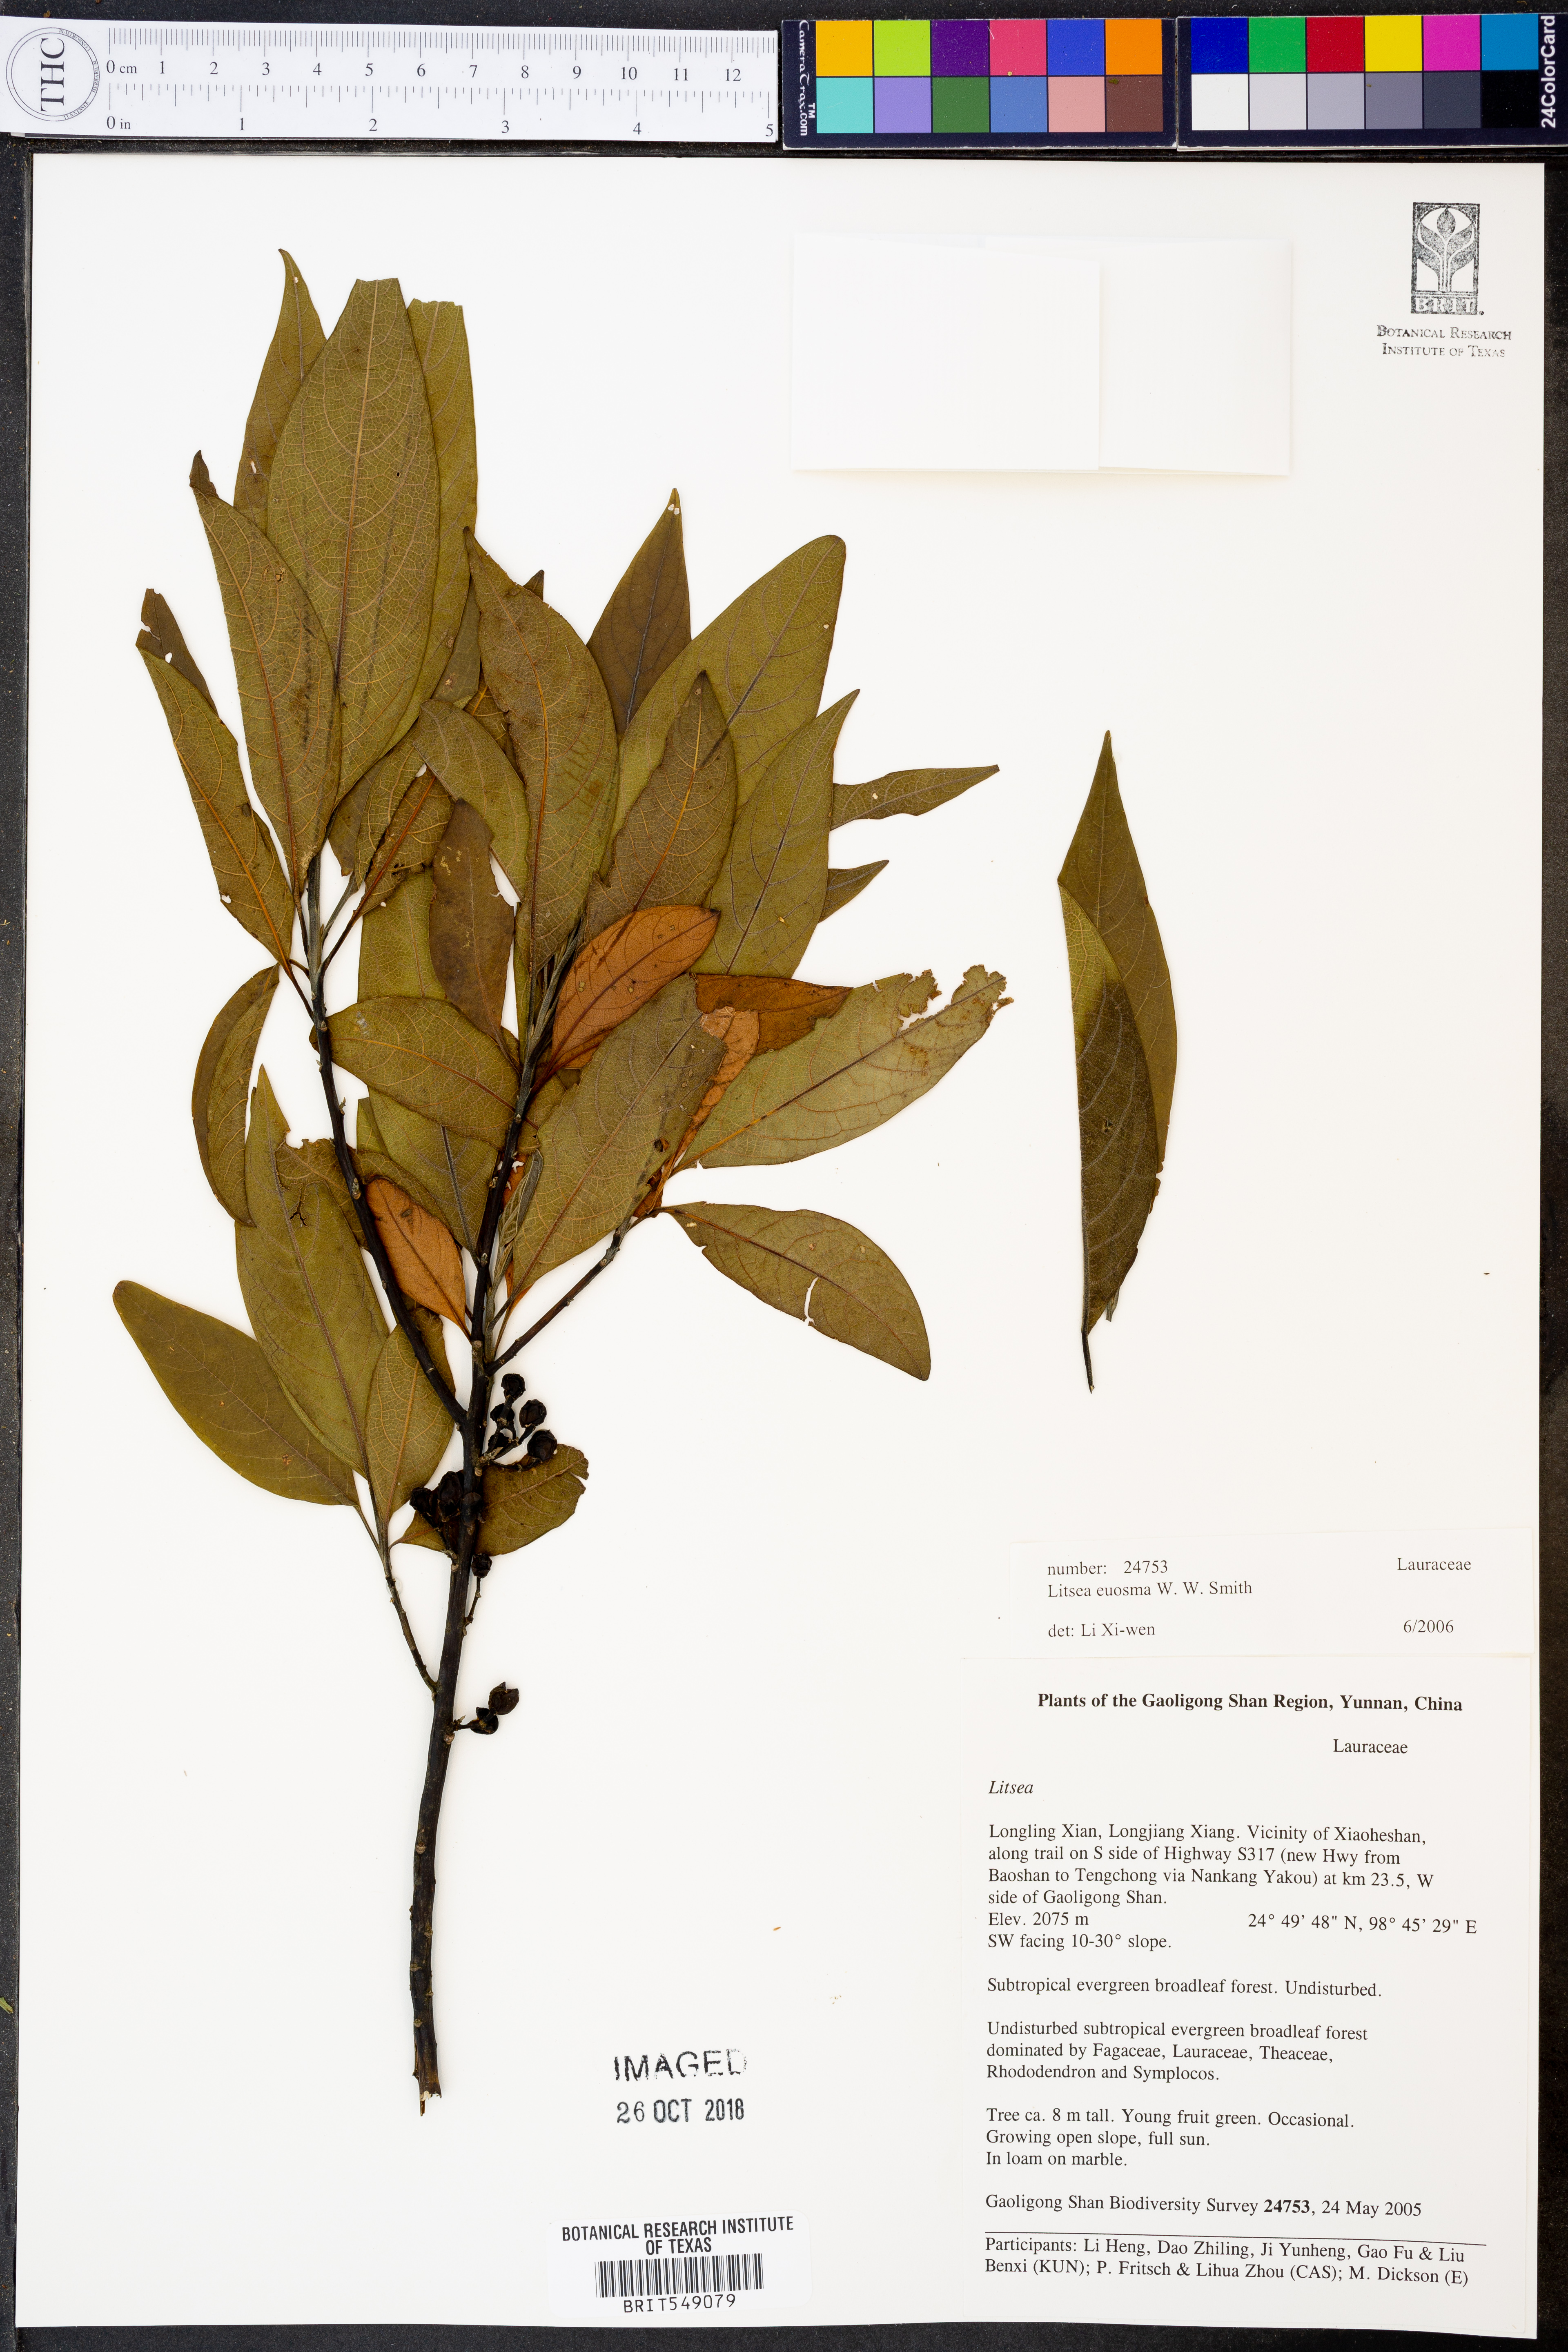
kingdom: Plantae
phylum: Tracheophyta
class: Magnoliopsida
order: Laurales
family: Lauraceae
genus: Litsea
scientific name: Litsea euosma
